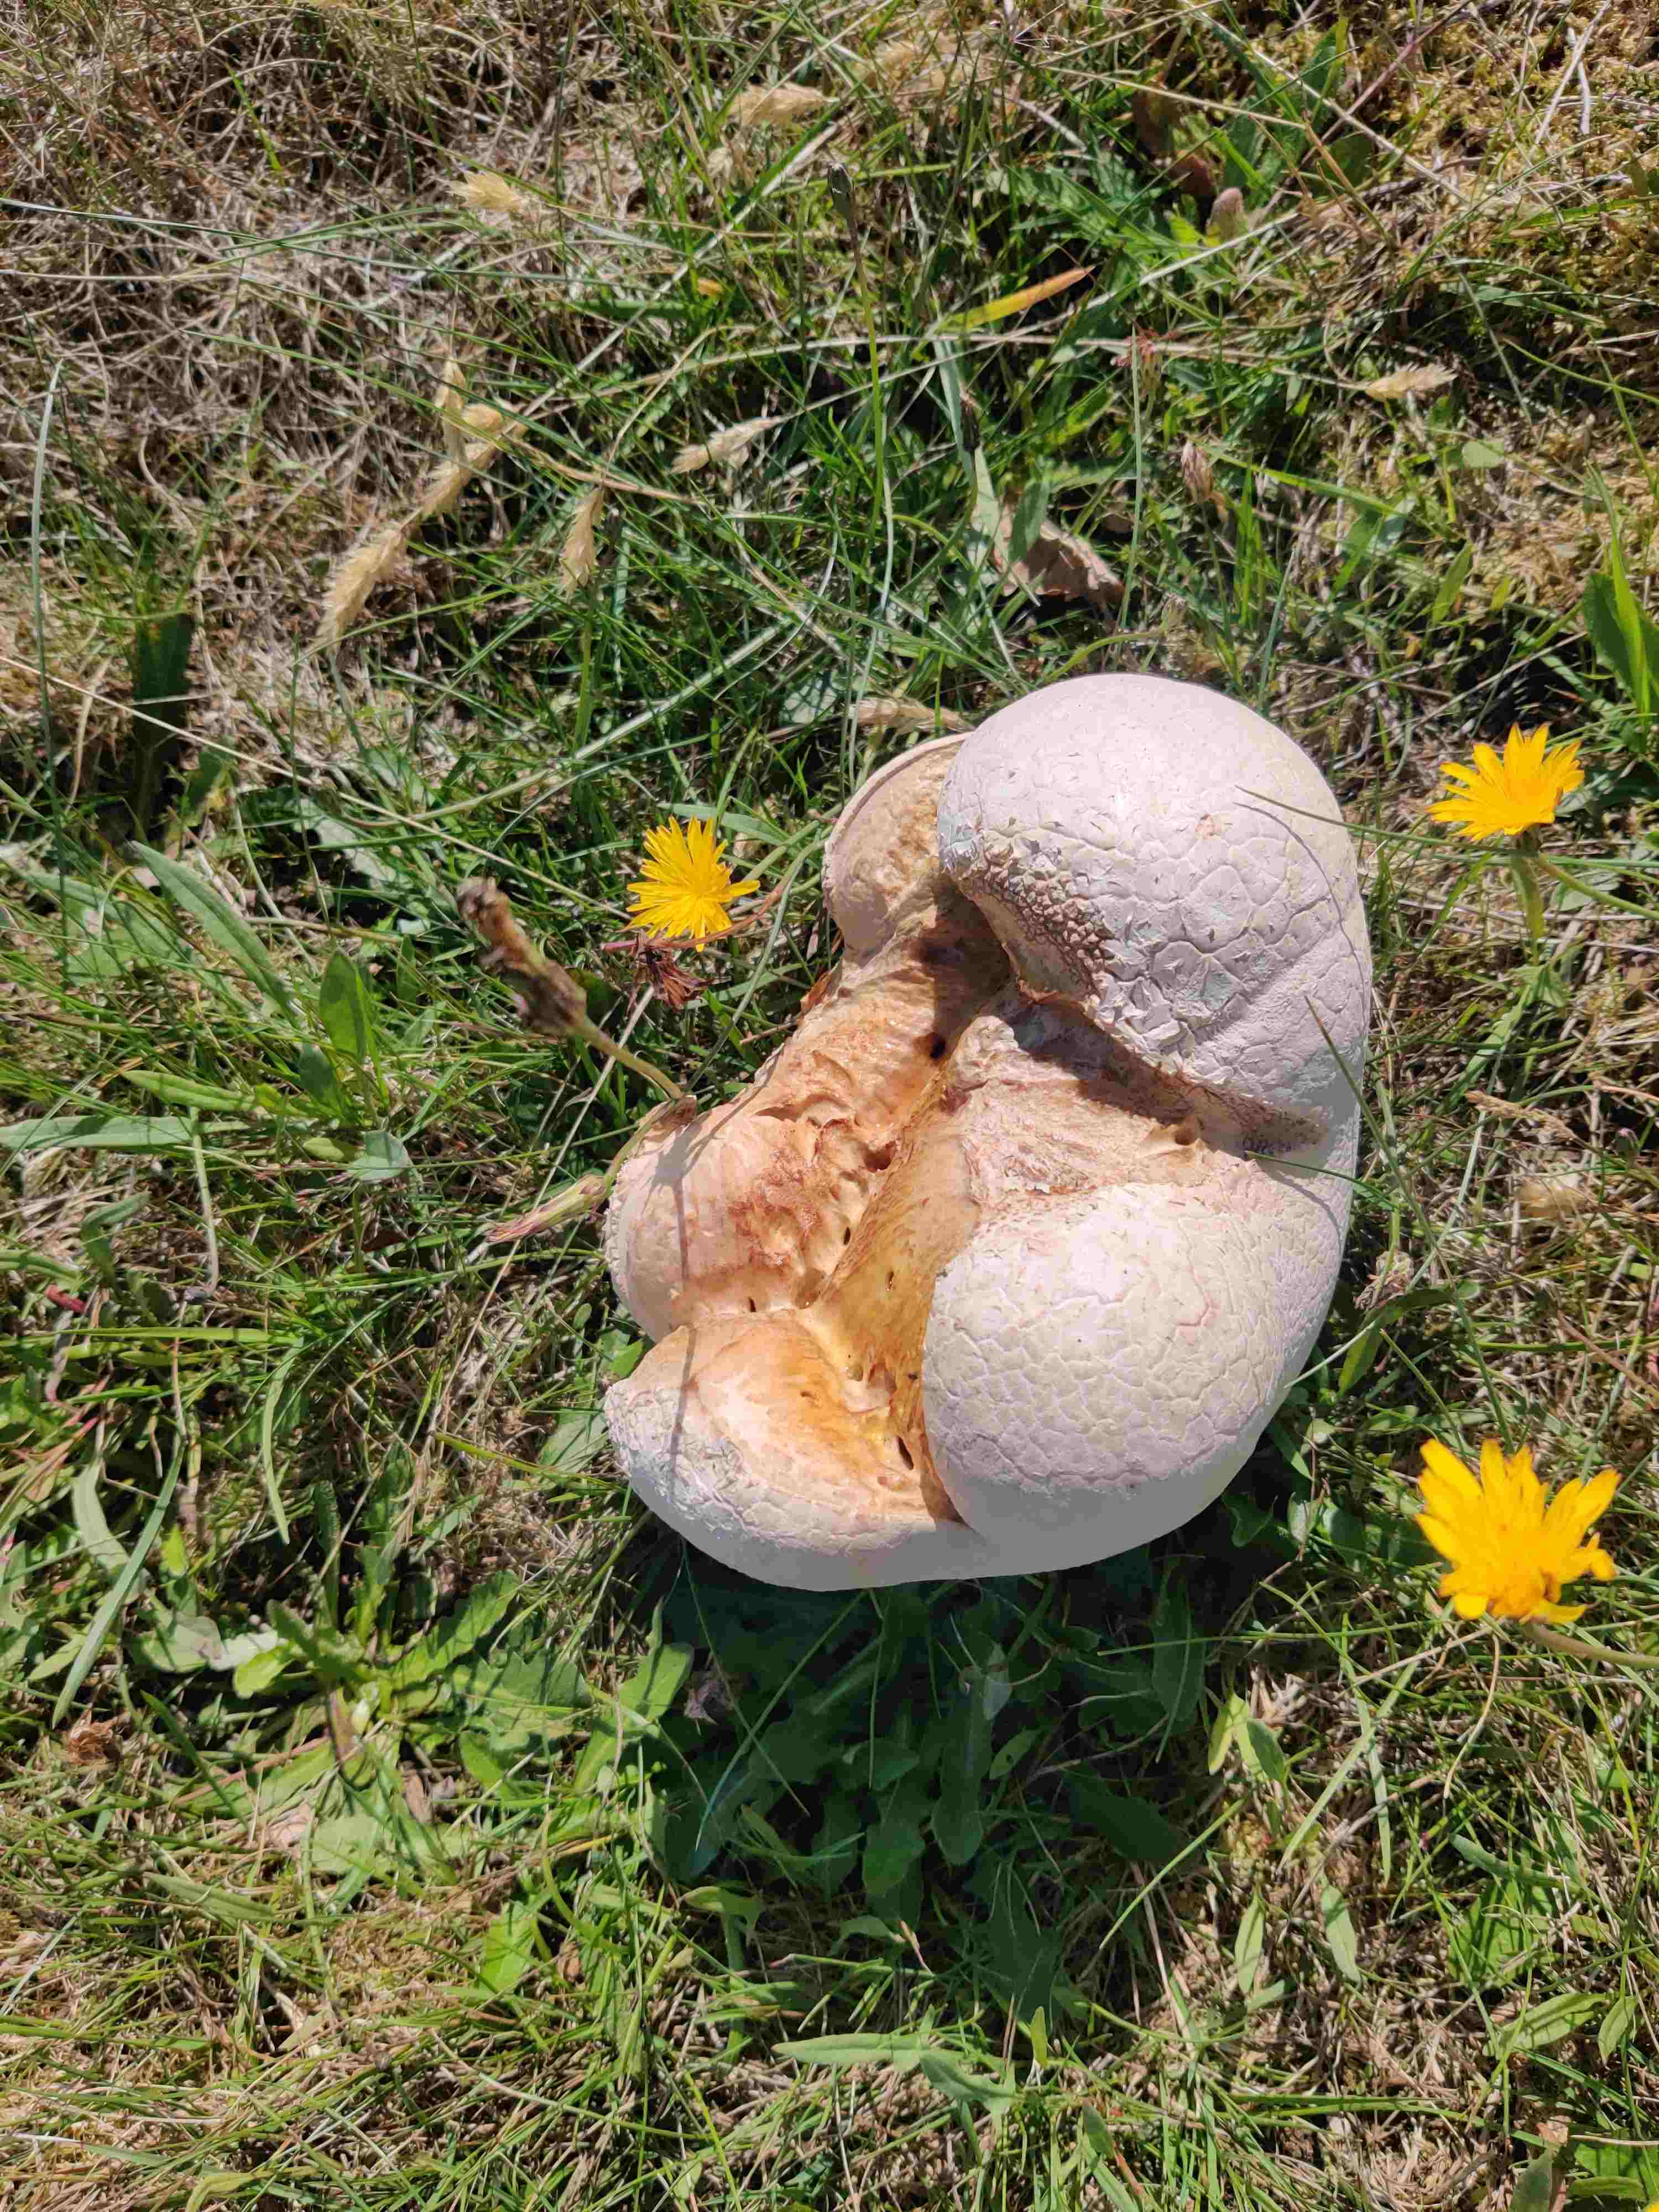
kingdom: Fungi
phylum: Basidiomycota
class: Agaricomycetes
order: Agaricales
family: Lycoperdaceae
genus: Bovistella
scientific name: Bovistella utriformis
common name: skællet støvbold
